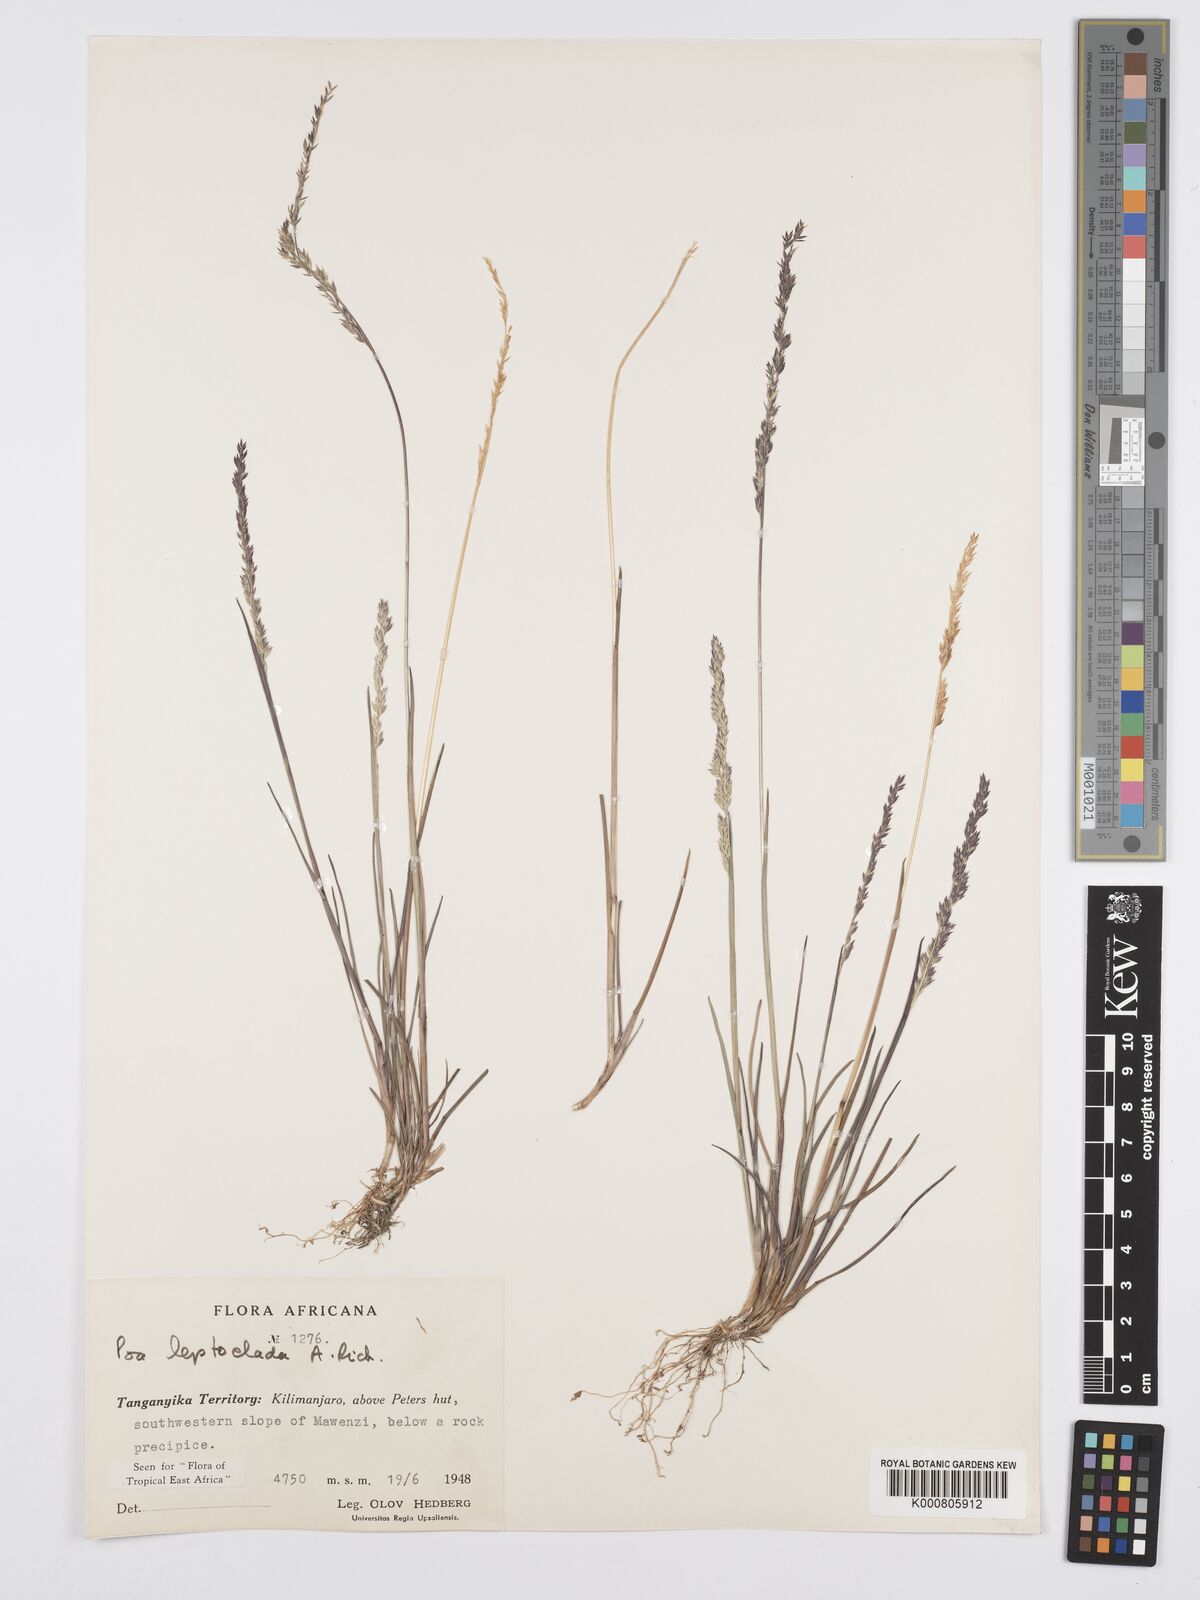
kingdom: Plantae
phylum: Tracheophyta
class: Liliopsida
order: Poales
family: Poaceae
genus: Poa
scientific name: Poa leptoclada
